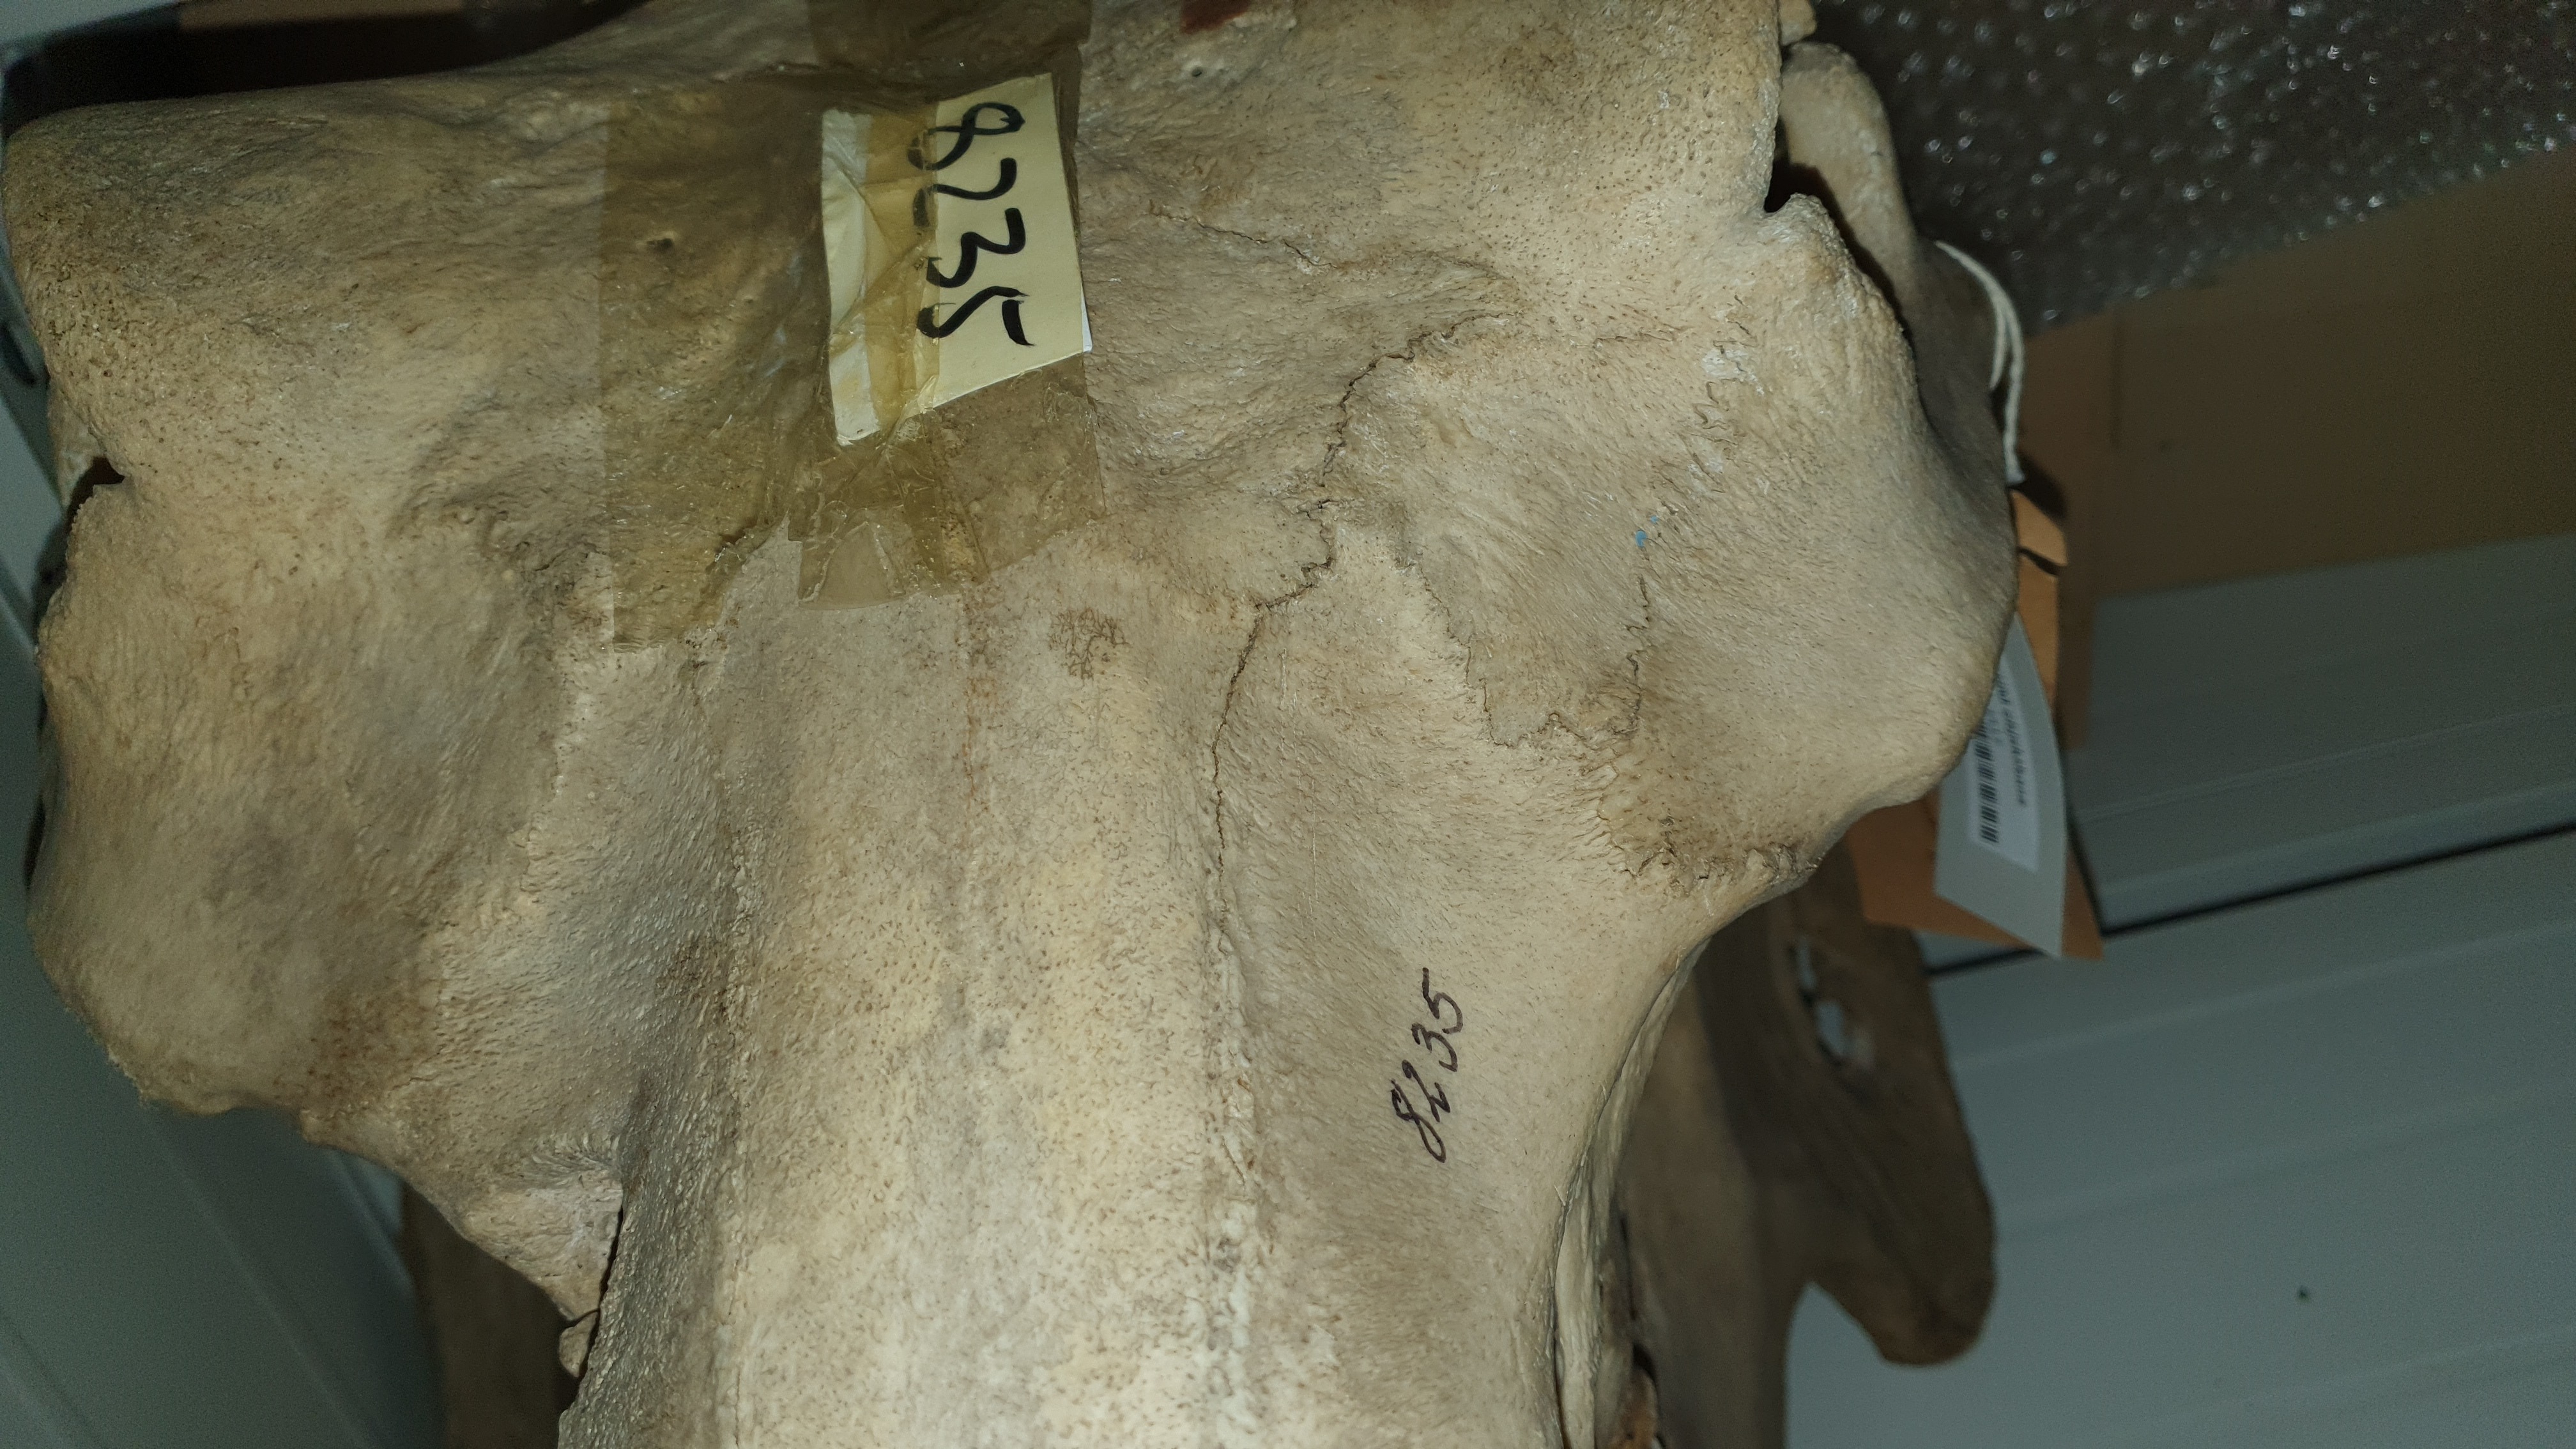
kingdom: Animalia
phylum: Chordata
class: Mammalia
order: Artiodactyla
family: Hippopotamidae
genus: Hippopotamus
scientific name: Hippopotamus amphibius
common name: Common hippopotamus
